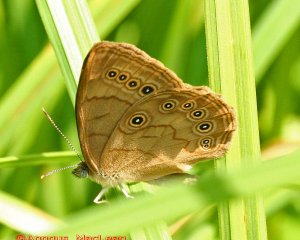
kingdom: Animalia
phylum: Arthropoda
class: Insecta
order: Lepidoptera
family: Nymphalidae
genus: Lethe
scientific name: Lethe eurydice
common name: Eyed Brown
